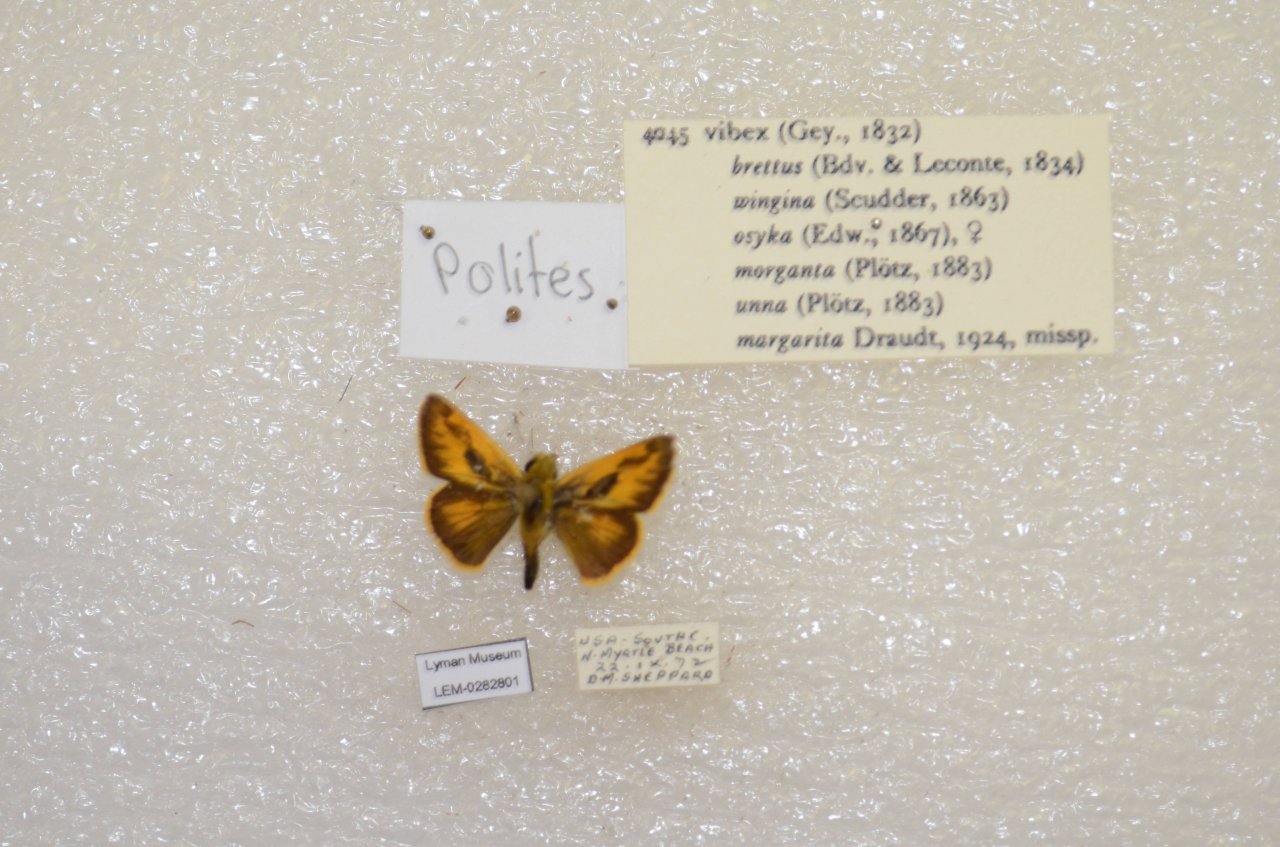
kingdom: Animalia
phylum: Arthropoda
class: Insecta
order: Lepidoptera
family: Hesperiidae
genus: Polites
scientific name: Polites vibex
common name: Whirlabout
